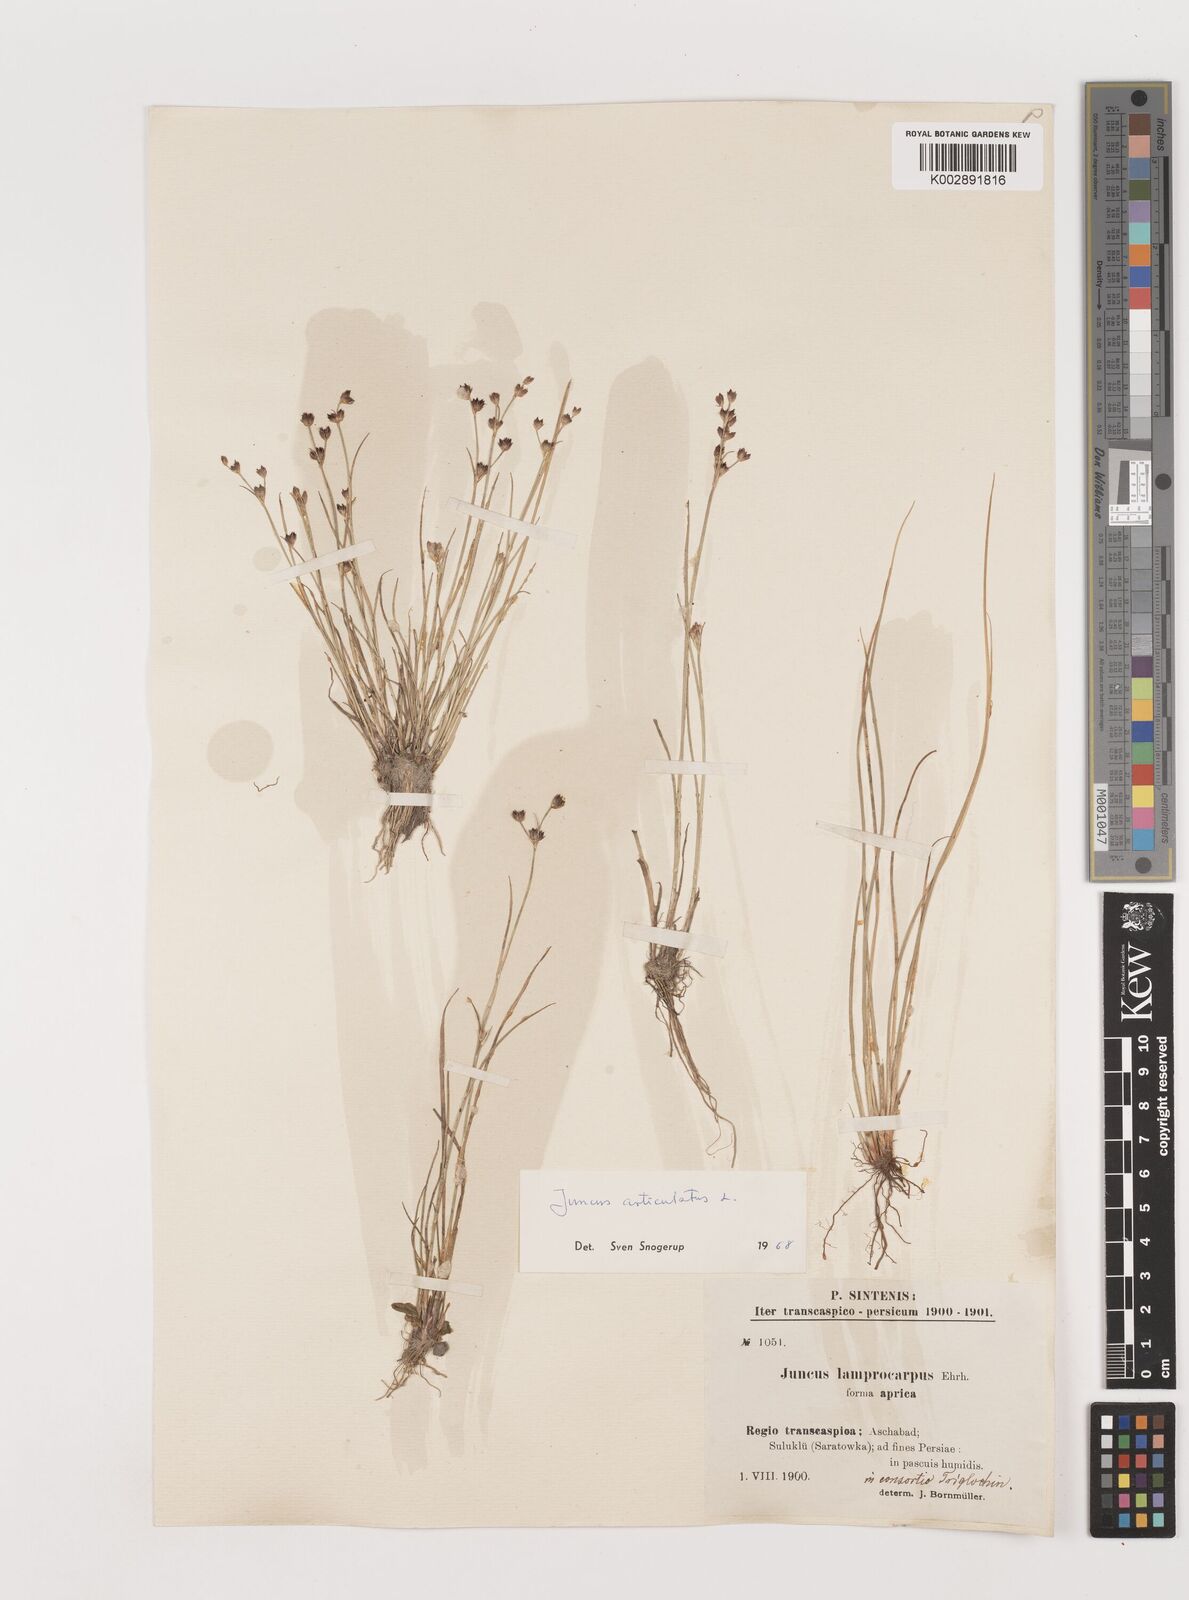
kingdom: Plantae
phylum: Tracheophyta
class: Liliopsida
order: Poales
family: Juncaceae
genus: Juncus
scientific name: Juncus articulatus
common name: Jointed rush
